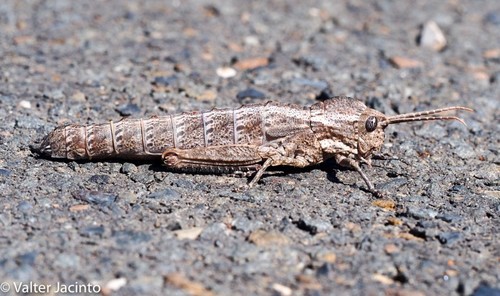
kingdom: Animalia
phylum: Arthropoda
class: Insecta
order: Orthoptera
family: Pamphagidae
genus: Acinipe
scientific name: Acinipe paulinoi
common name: Paulino's stone grasshopper
